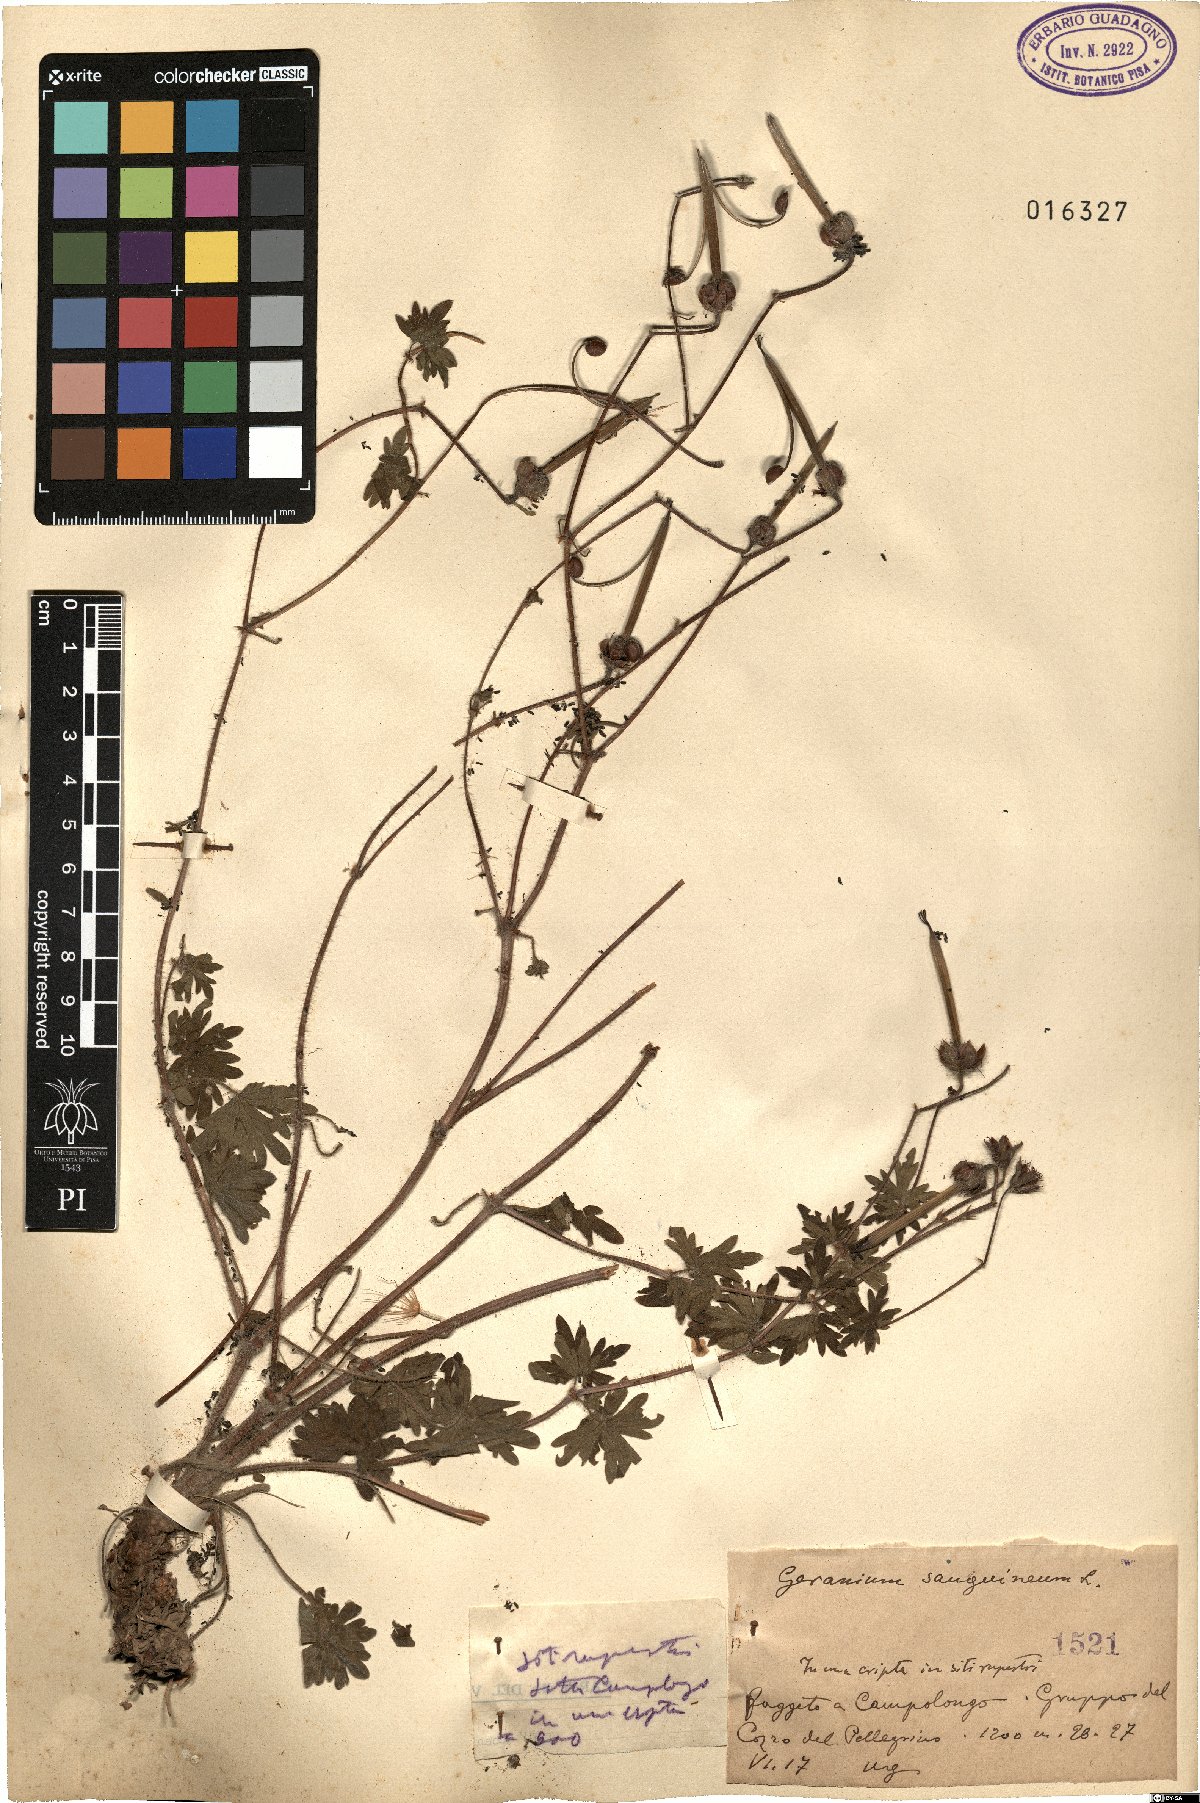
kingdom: Plantae
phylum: Tracheophyta
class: Magnoliopsida
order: Geraniales
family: Geraniaceae
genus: Geranium
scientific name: Geranium sanguineum
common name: Bloody crane's-bill
